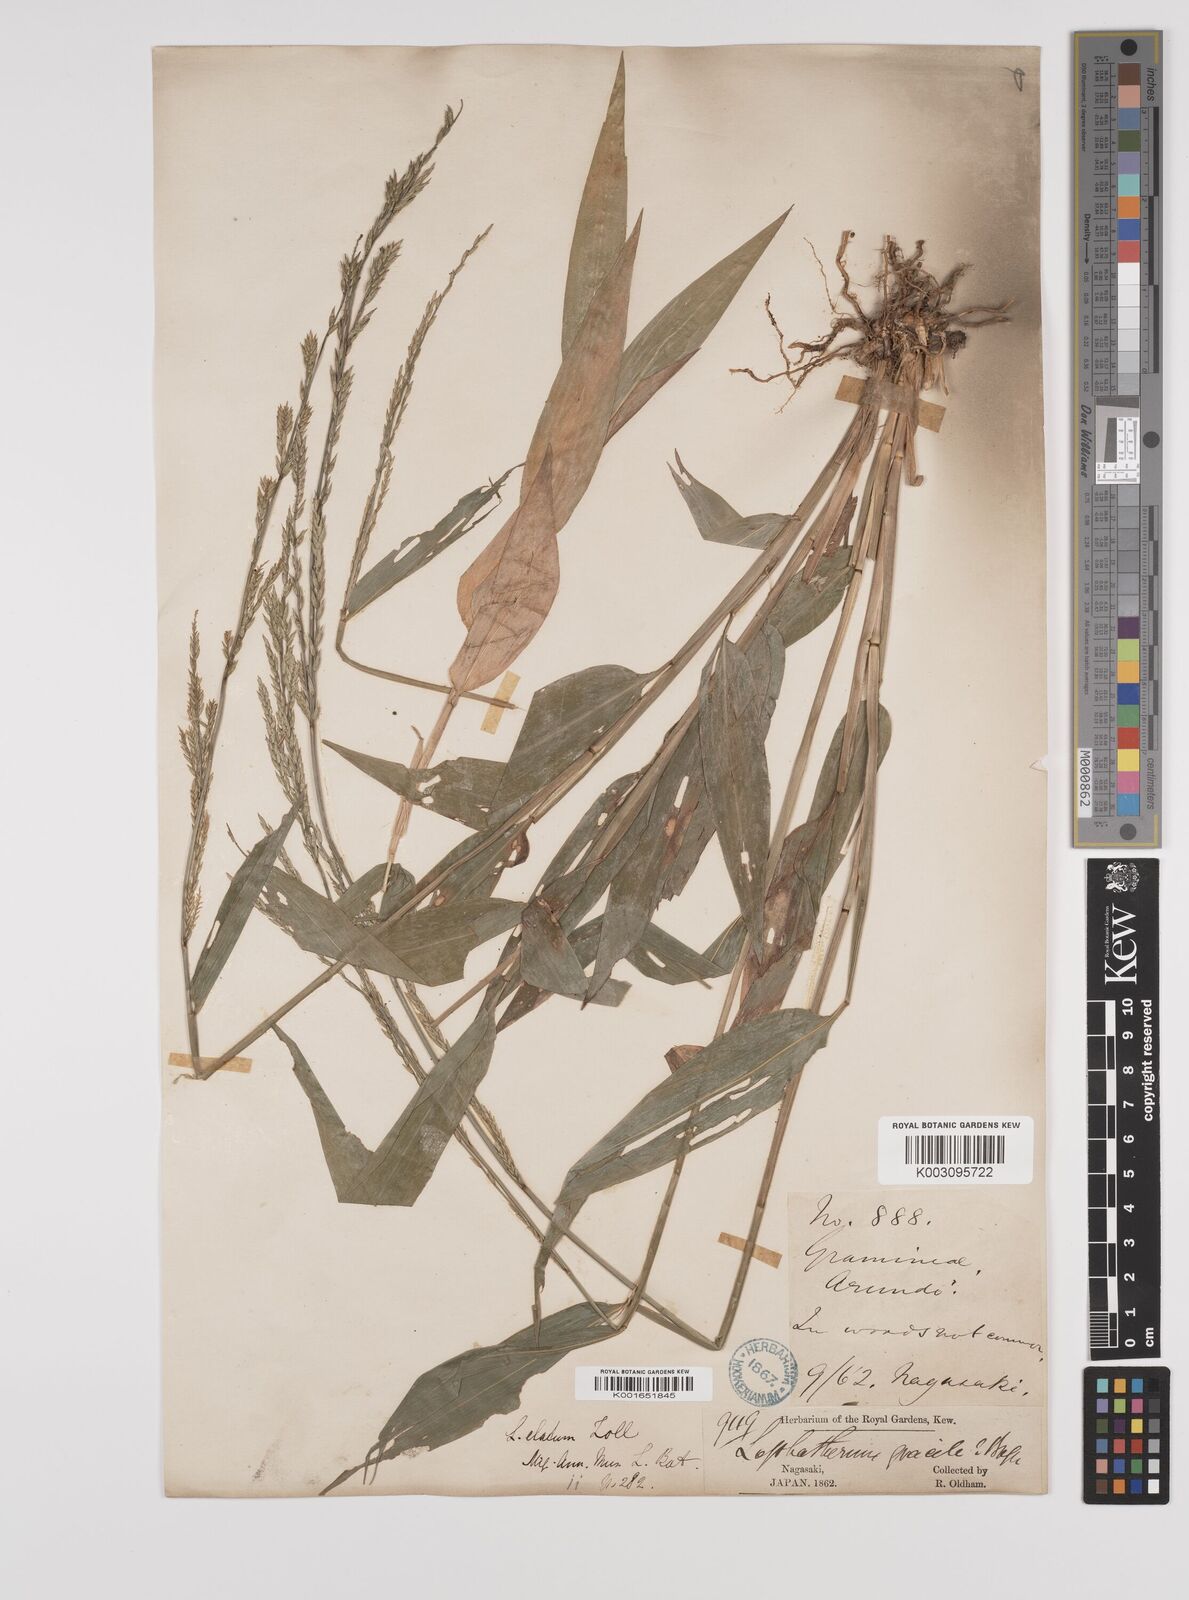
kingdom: Plantae
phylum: Tracheophyta
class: Liliopsida
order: Poales
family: Poaceae
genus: Lophatherum
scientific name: Lophatherum gracile
